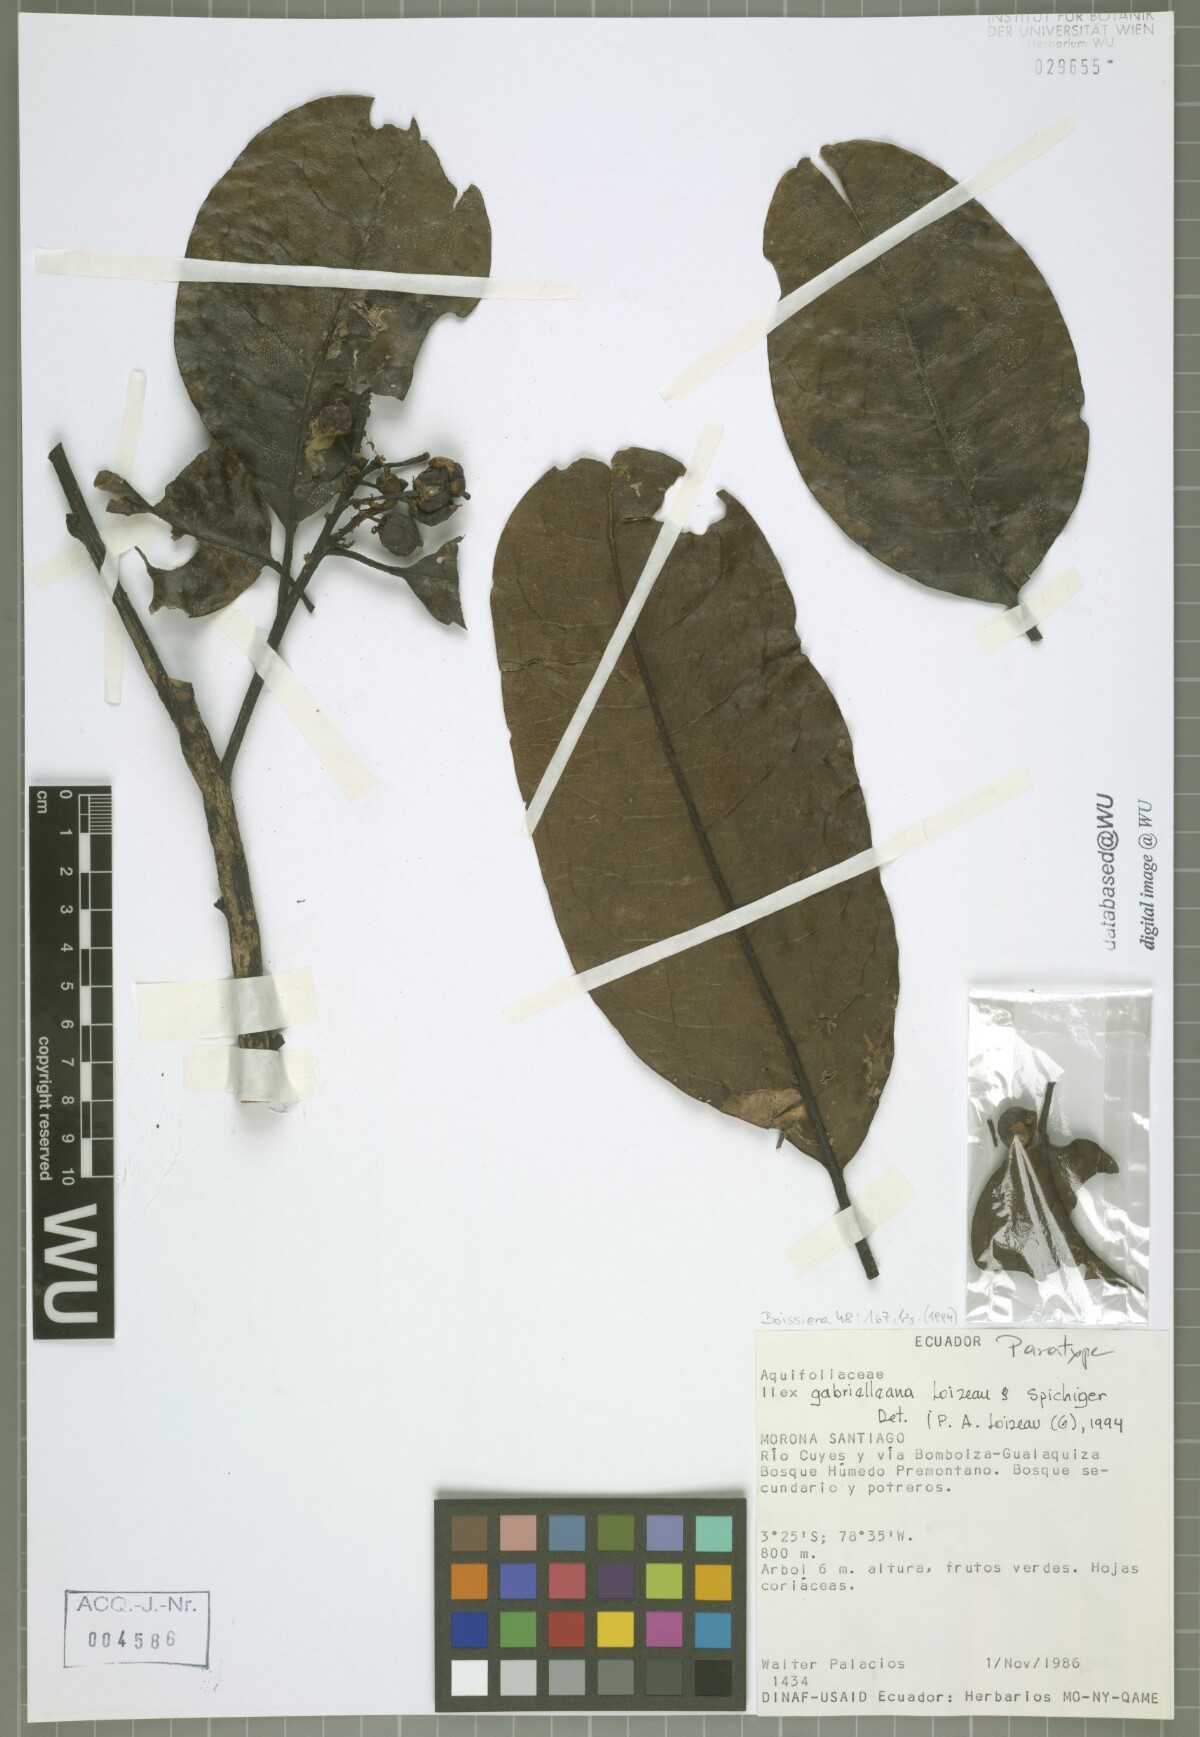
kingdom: Plantae
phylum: Tracheophyta
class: Magnoliopsida
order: Aquifoliales
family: Aquifoliaceae
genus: Ilex
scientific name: Ilex gabrielleana
